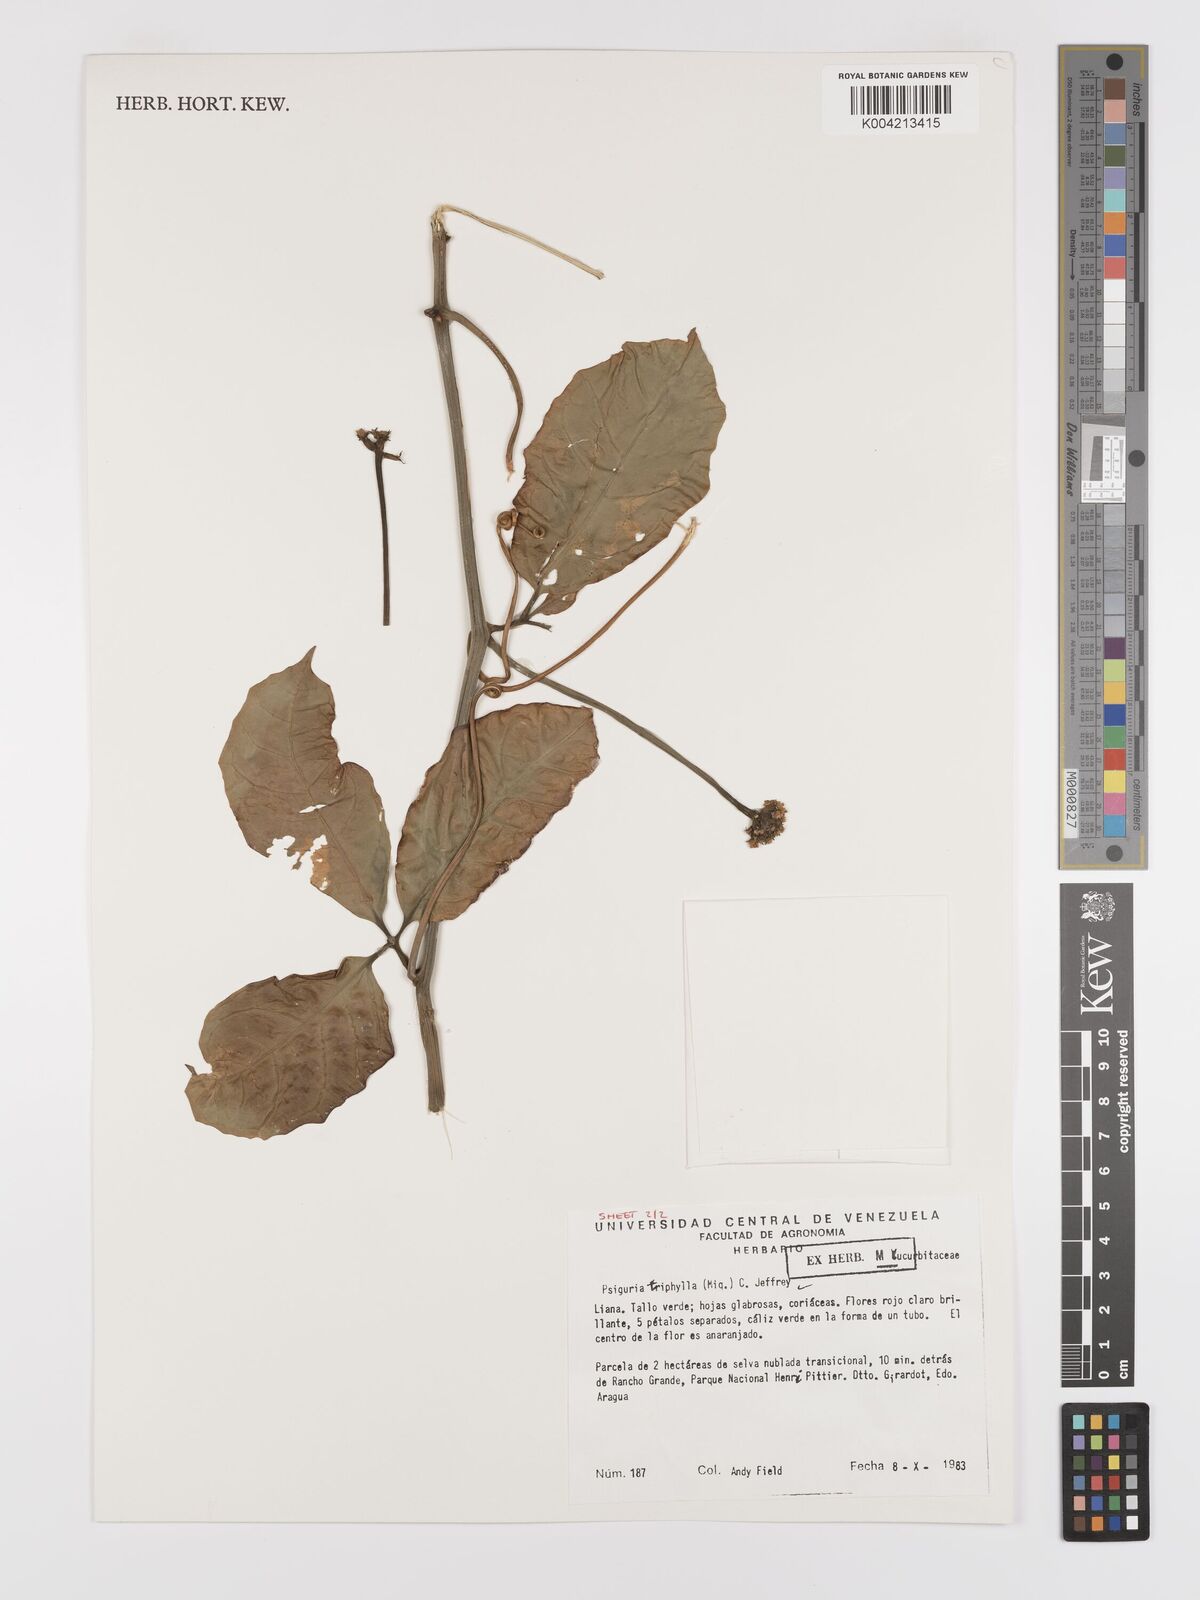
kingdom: Plantae
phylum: Tracheophyta
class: Magnoliopsida
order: Cucurbitales
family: Cucurbitaceae
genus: Psiguria
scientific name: Psiguria triphylla
